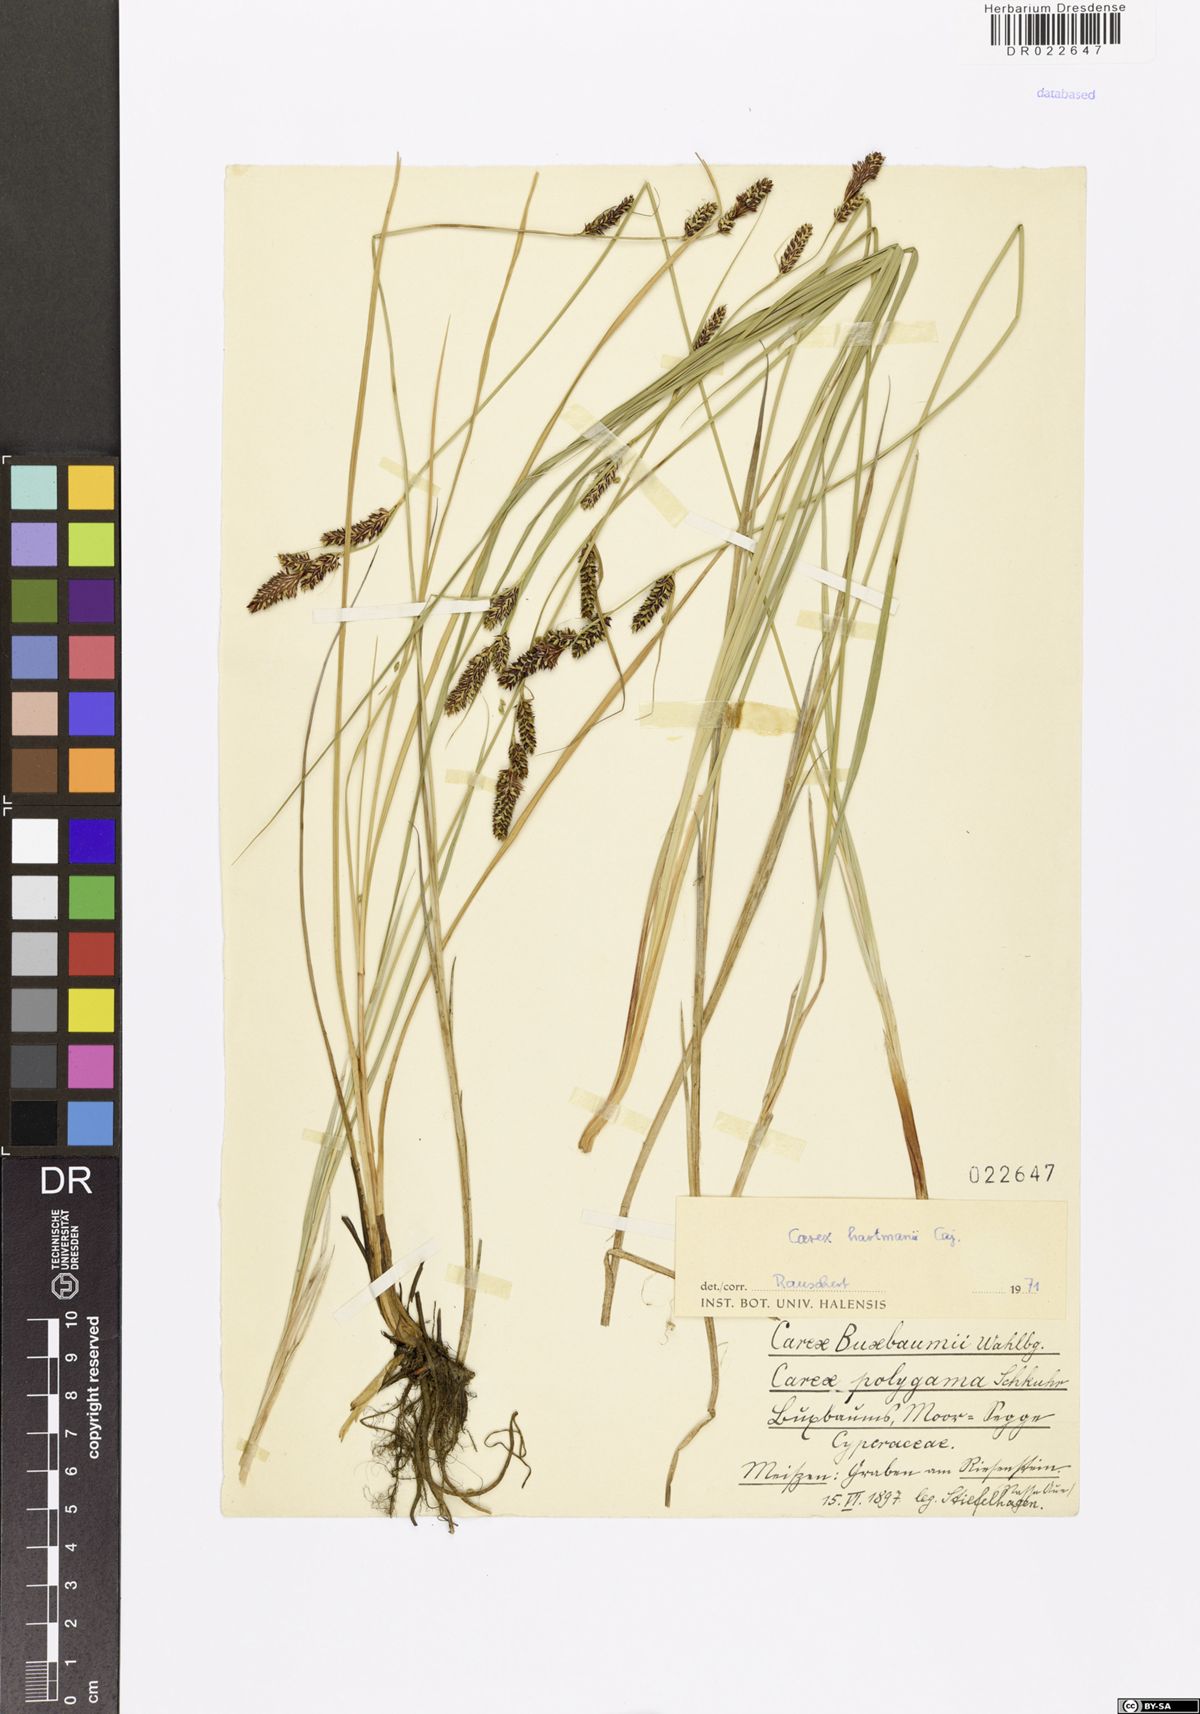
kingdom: Plantae
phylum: Tracheophyta
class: Liliopsida
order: Poales
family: Cyperaceae
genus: Carex
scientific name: Carex hartmaniorum
